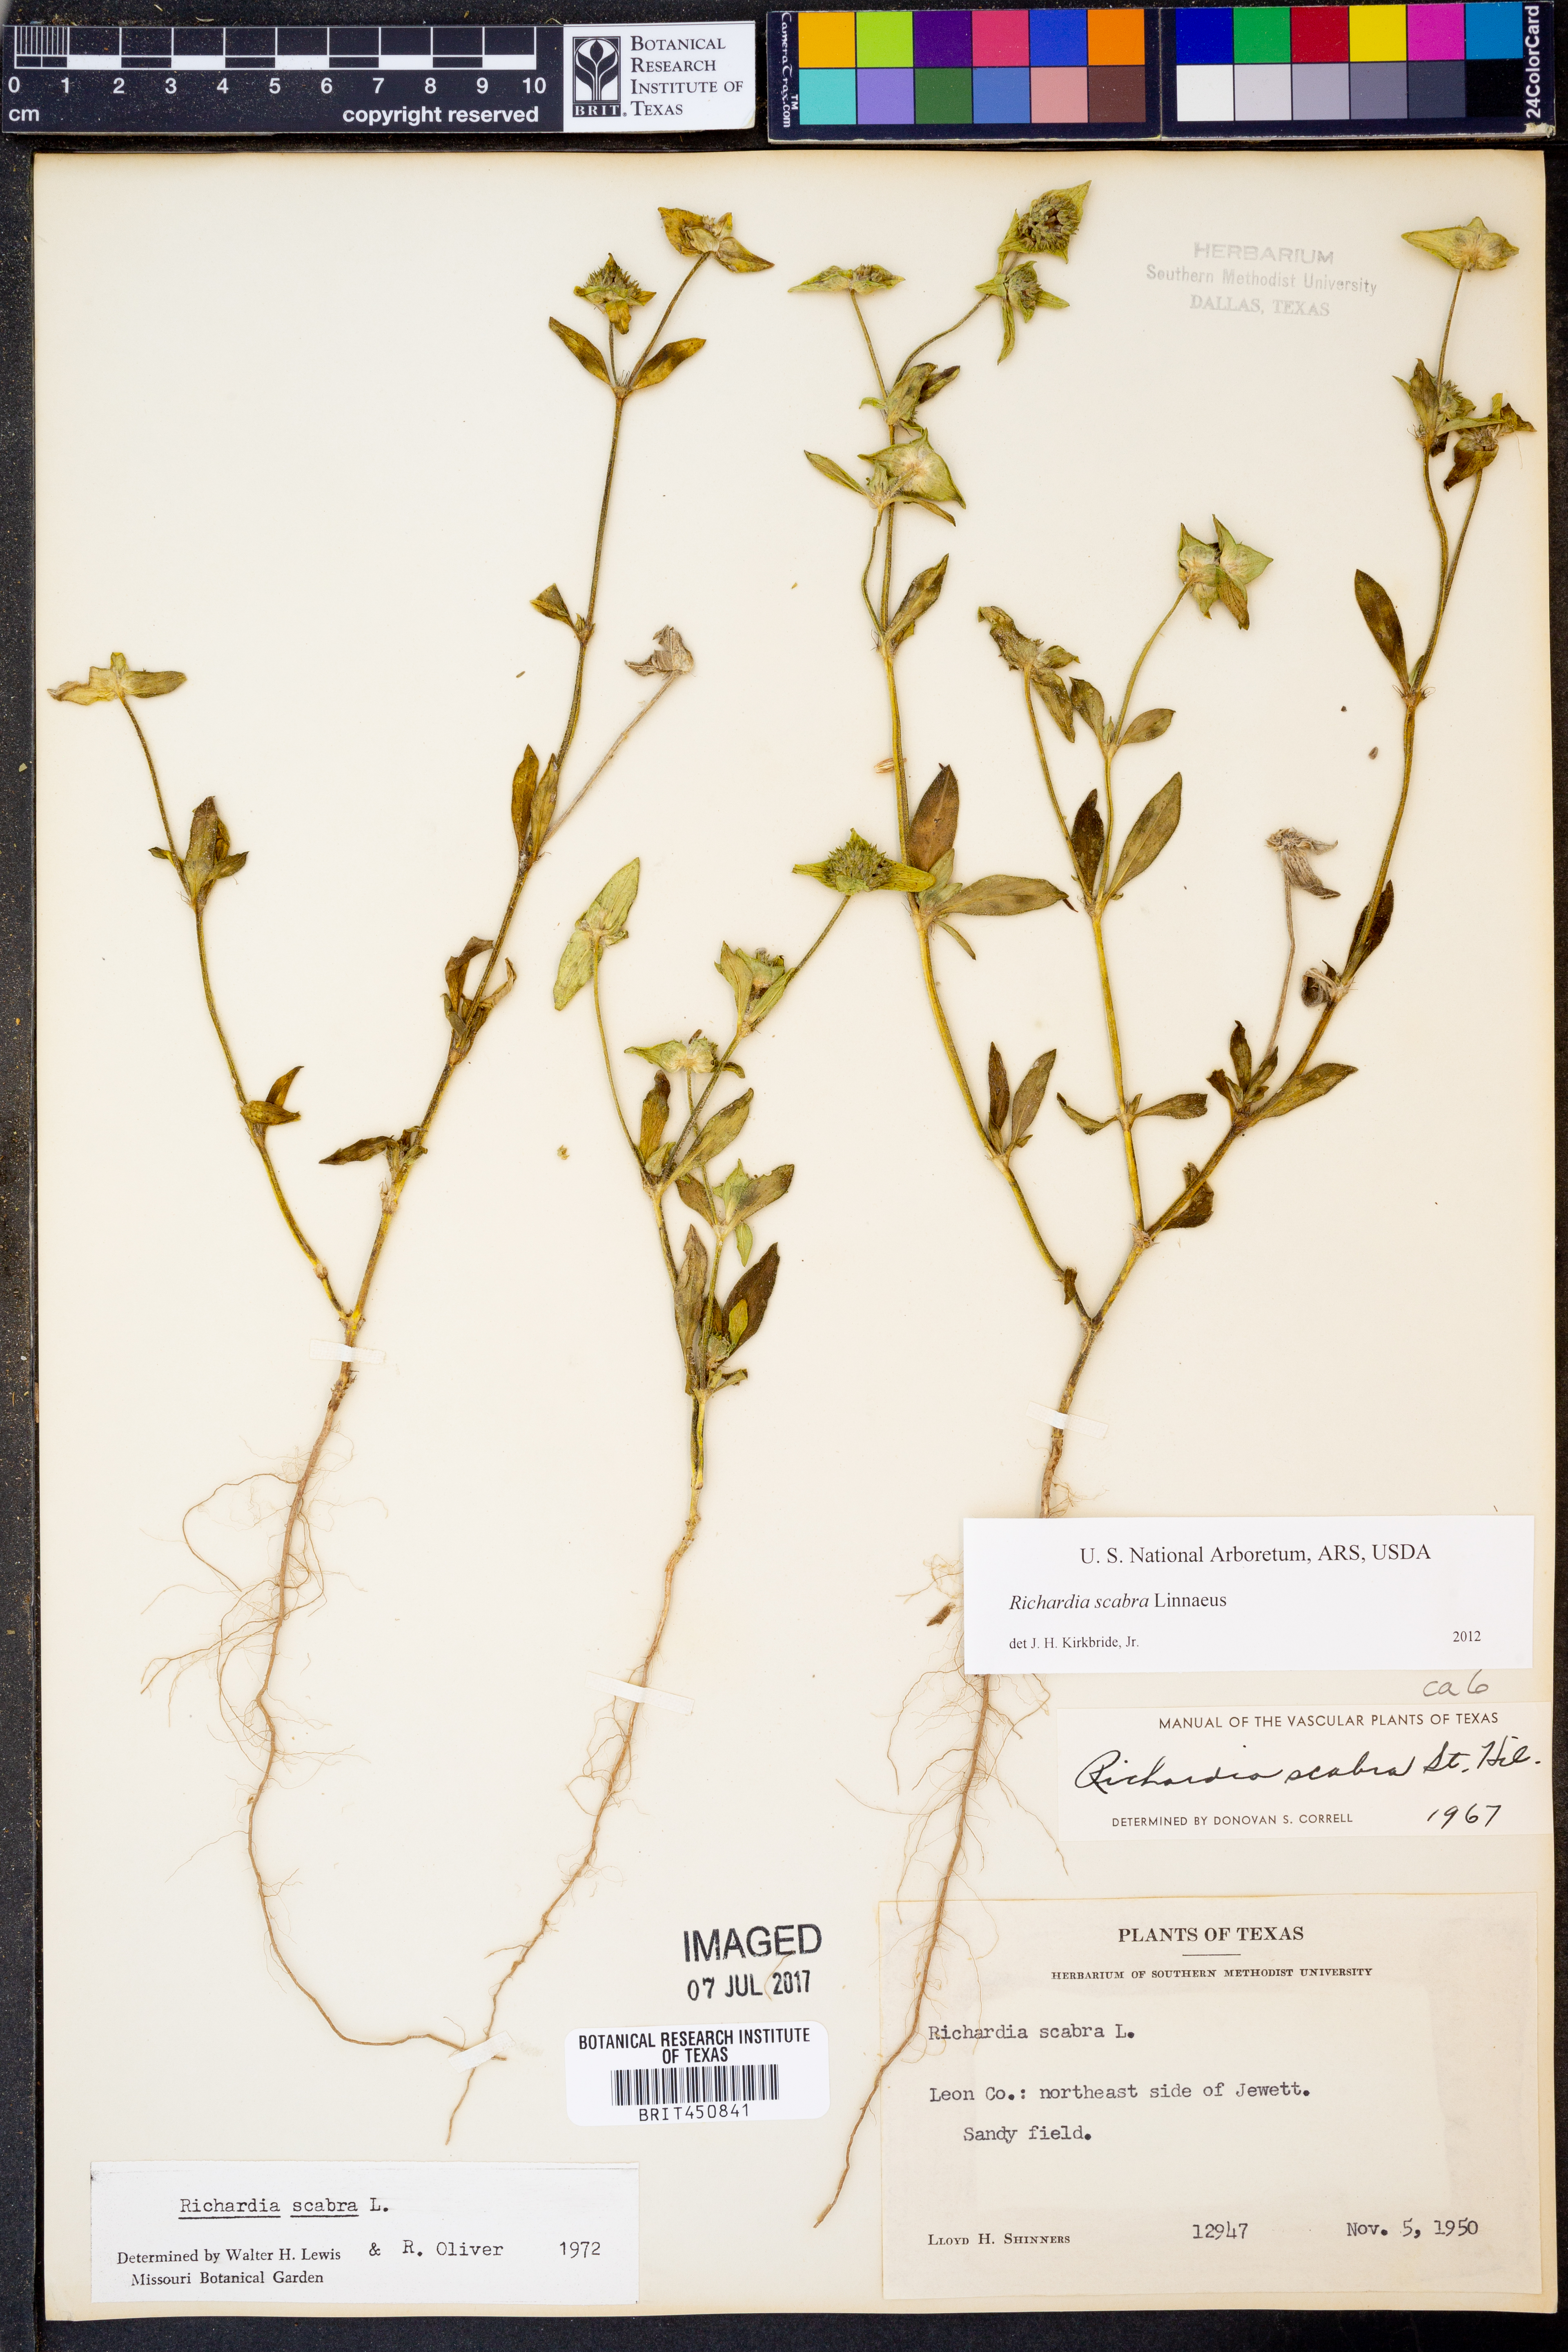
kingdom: Plantae
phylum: Tracheophyta
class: Magnoliopsida
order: Gentianales
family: Rubiaceae
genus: Richardia
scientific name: Richardia scabra
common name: Rough mexican clover
